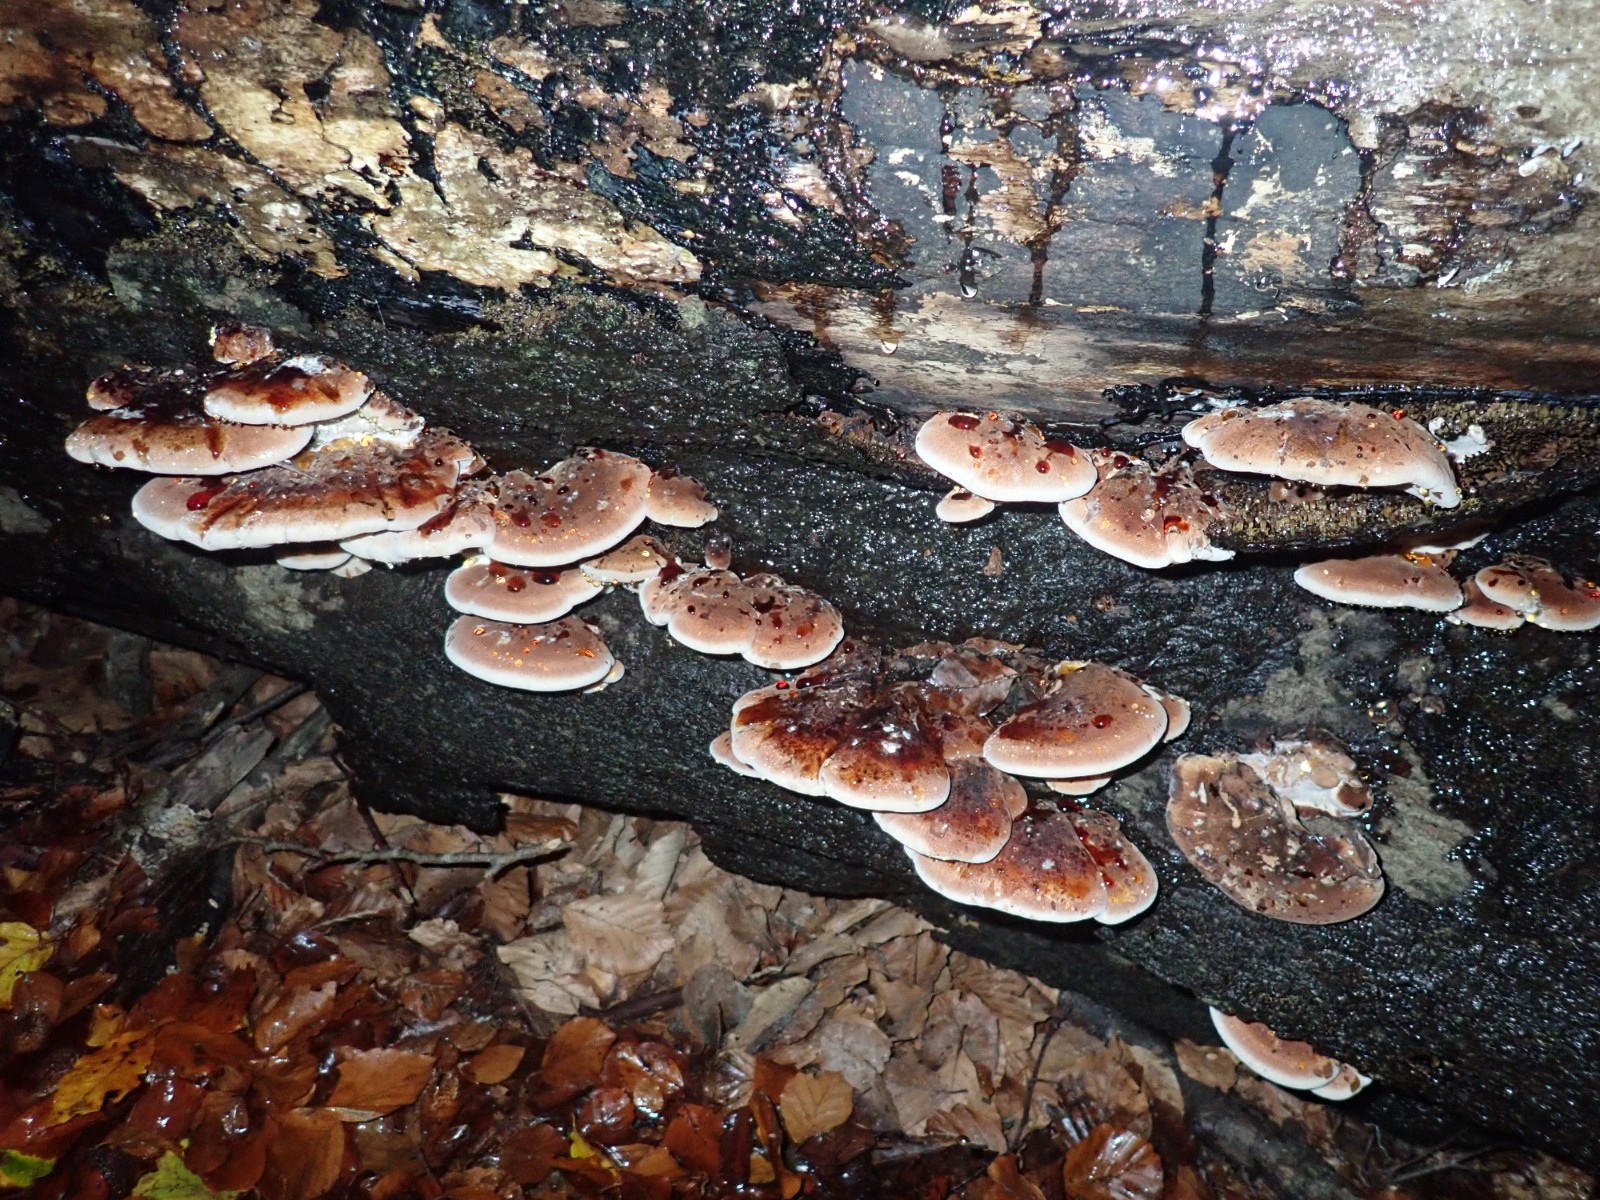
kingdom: Fungi
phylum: Basidiomycota
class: Agaricomycetes
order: Polyporales
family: Ischnodermataceae
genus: Ischnoderma
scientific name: Ischnoderma resinosum
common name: løv-tjæreporesvamp
